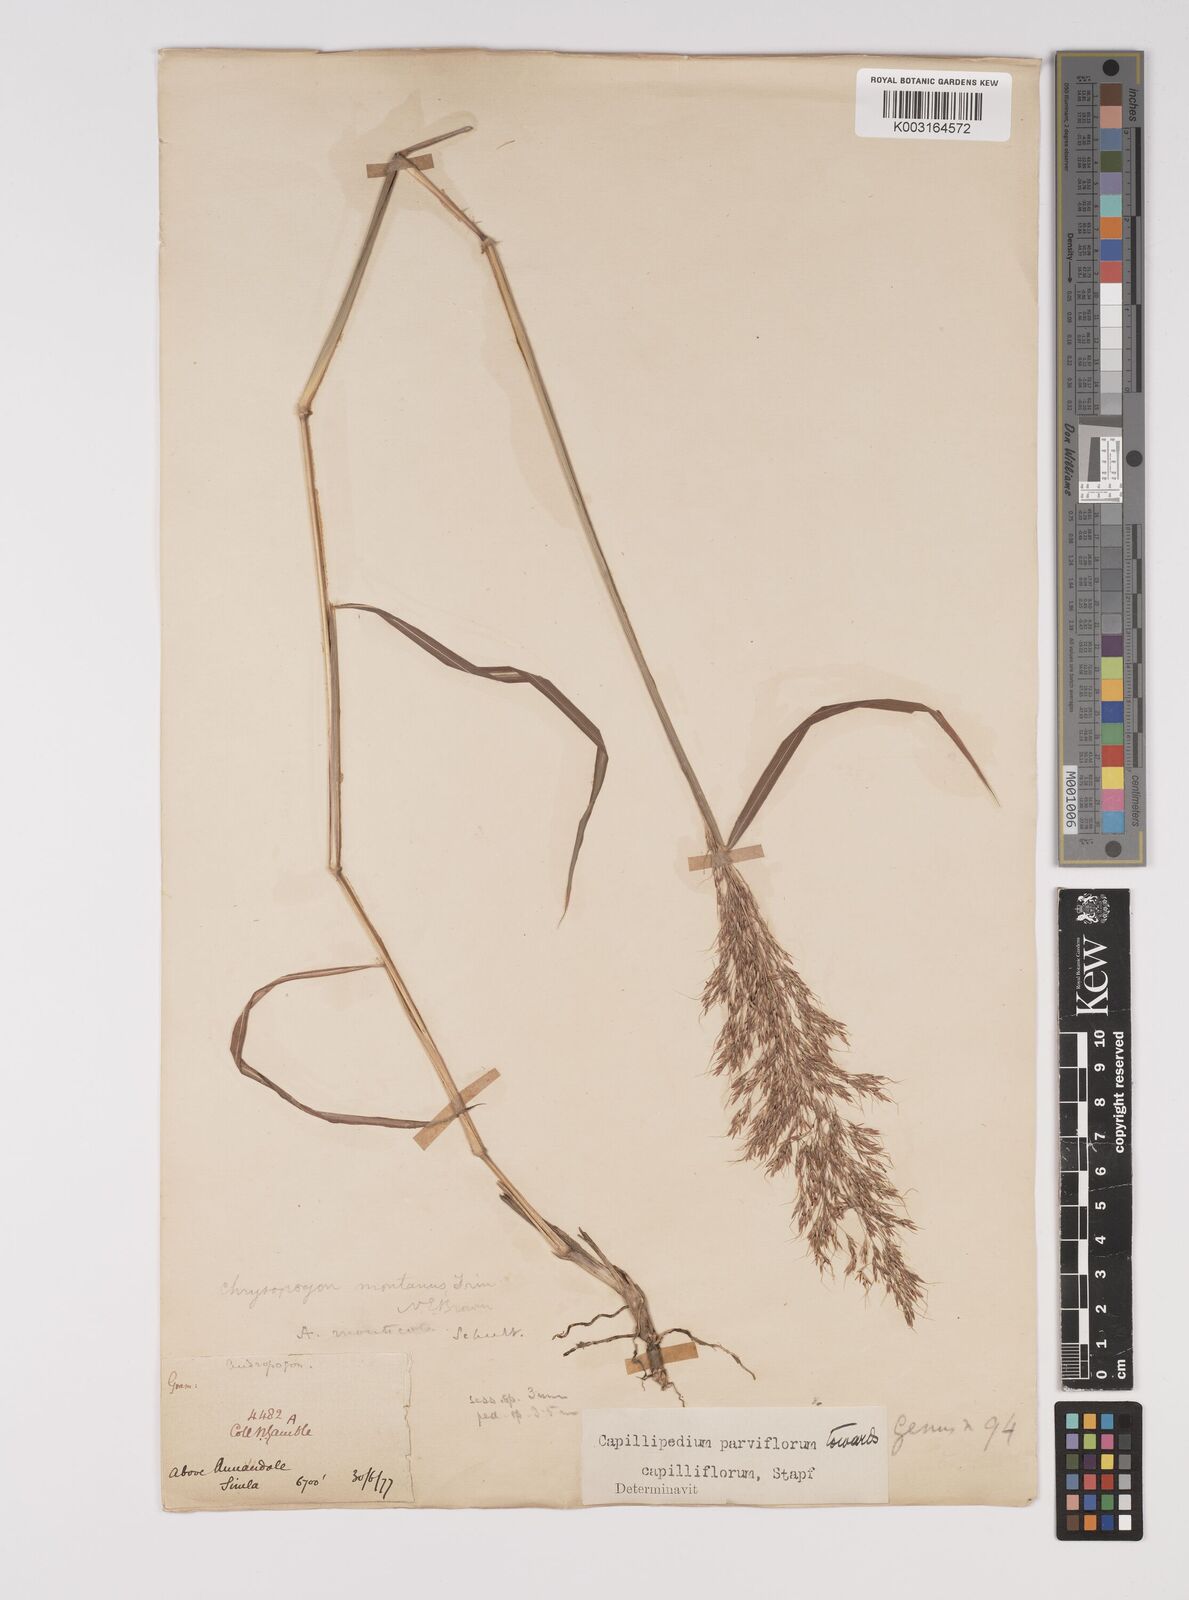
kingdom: Plantae
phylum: Tracheophyta
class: Liliopsida
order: Poales
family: Poaceae
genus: Capillipedium
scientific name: Capillipedium spicigerum
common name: Scented-top grass
